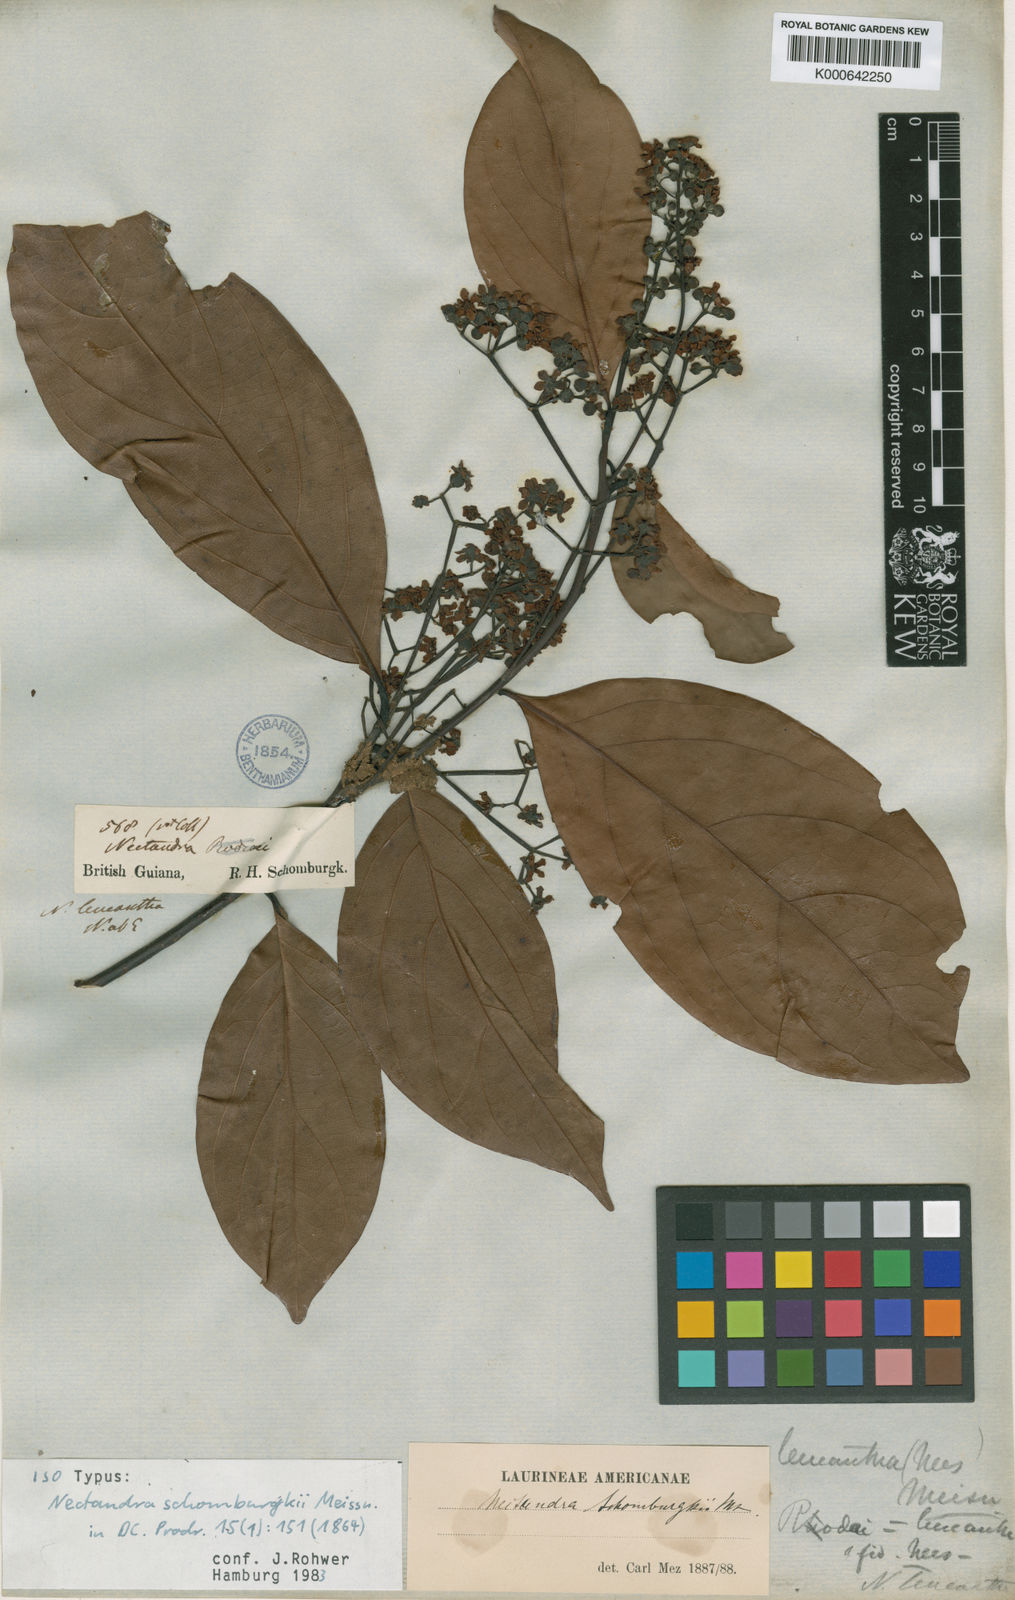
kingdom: Plantae
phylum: Tracheophyta
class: Magnoliopsida
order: Laurales
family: Lauraceae
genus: Endlicheria
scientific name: Endlicheria paniculata
